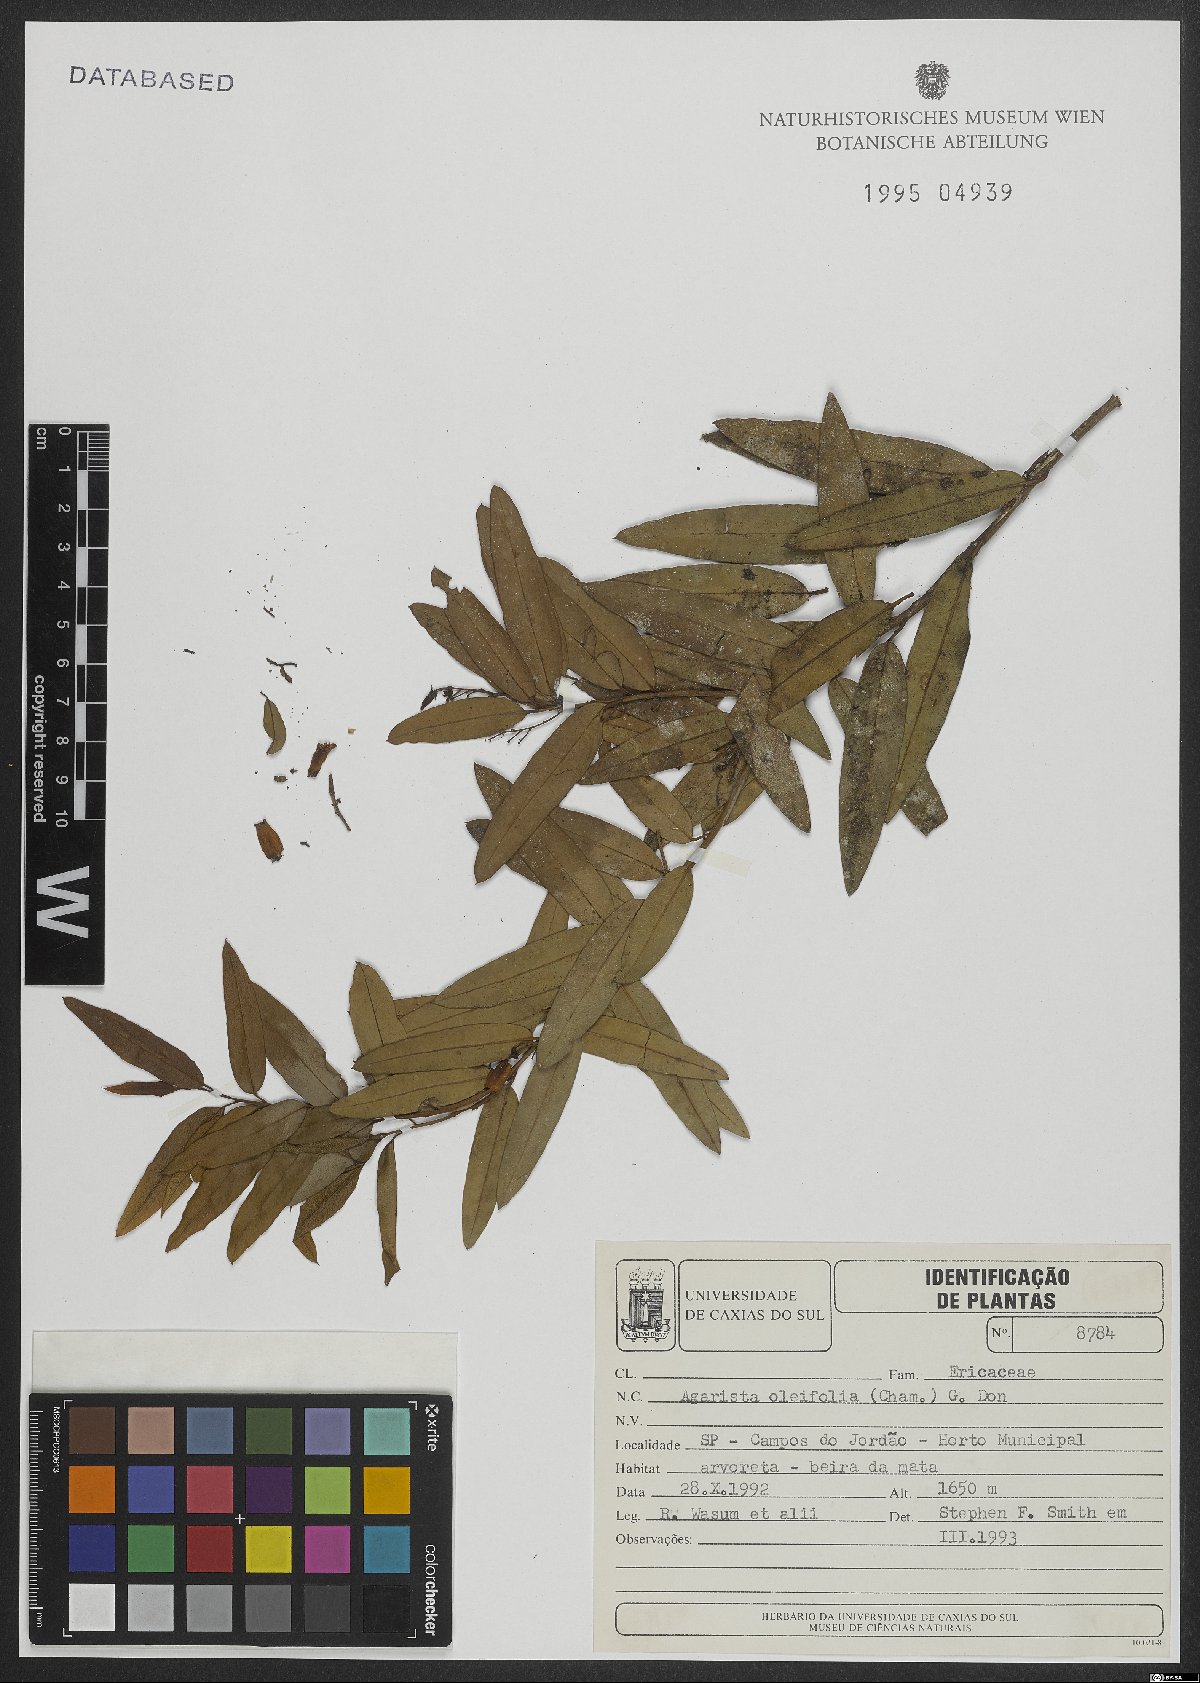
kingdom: Plantae
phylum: Tracheophyta
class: Magnoliopsida
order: Ericales
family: Ericaceae
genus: Agarista
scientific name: Agarista oleifolia
